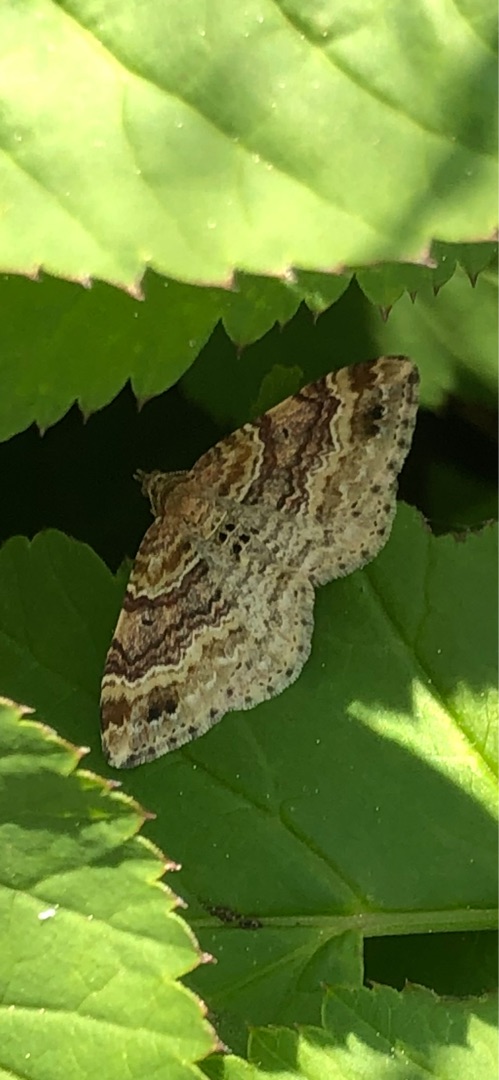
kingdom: Animalia
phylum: Arthropoda
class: Insecta
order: Lepidoptera
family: Geometridae
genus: Xanthorhoe
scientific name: Xanthorhoe spadicearia
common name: Brunrød bladmåler
